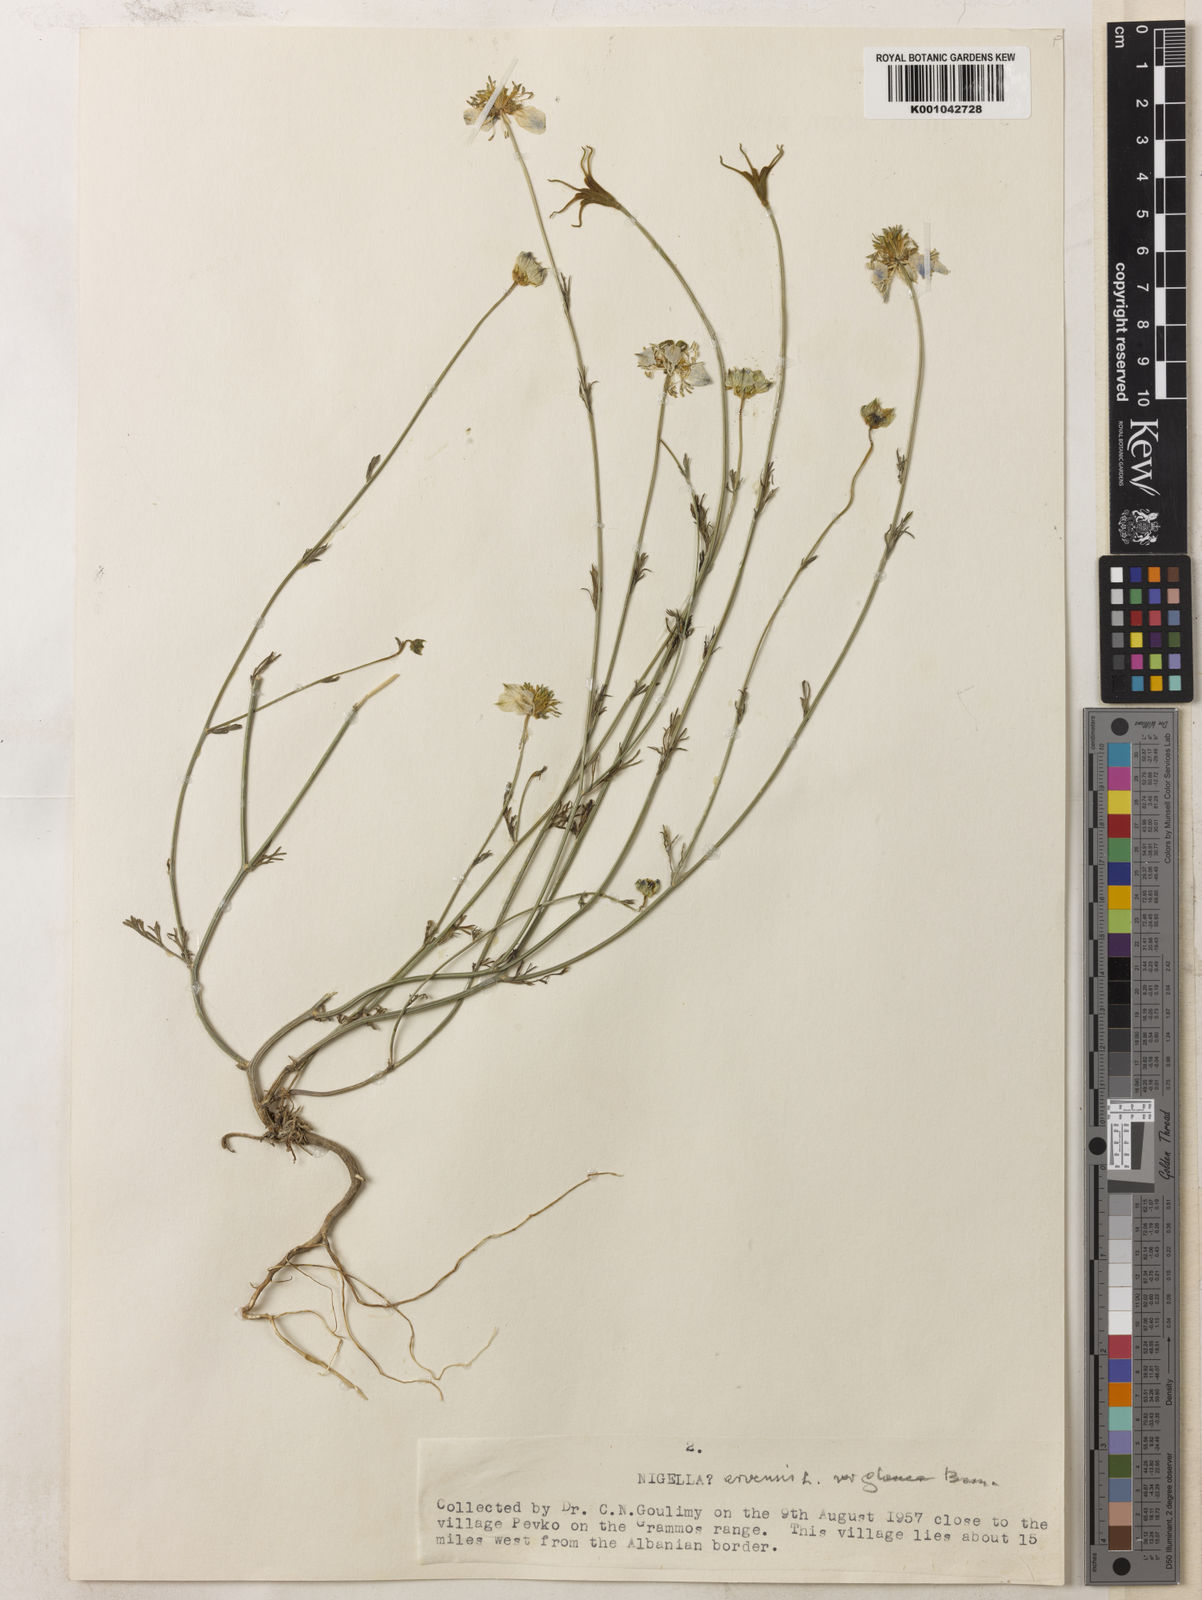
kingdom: Plantae
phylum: Tracheophyta
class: Magnoliopsida
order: Ranunculales
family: Ranunculaceae
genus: Nigella
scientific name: Nigella arvensis
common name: Wild fennel-flower
